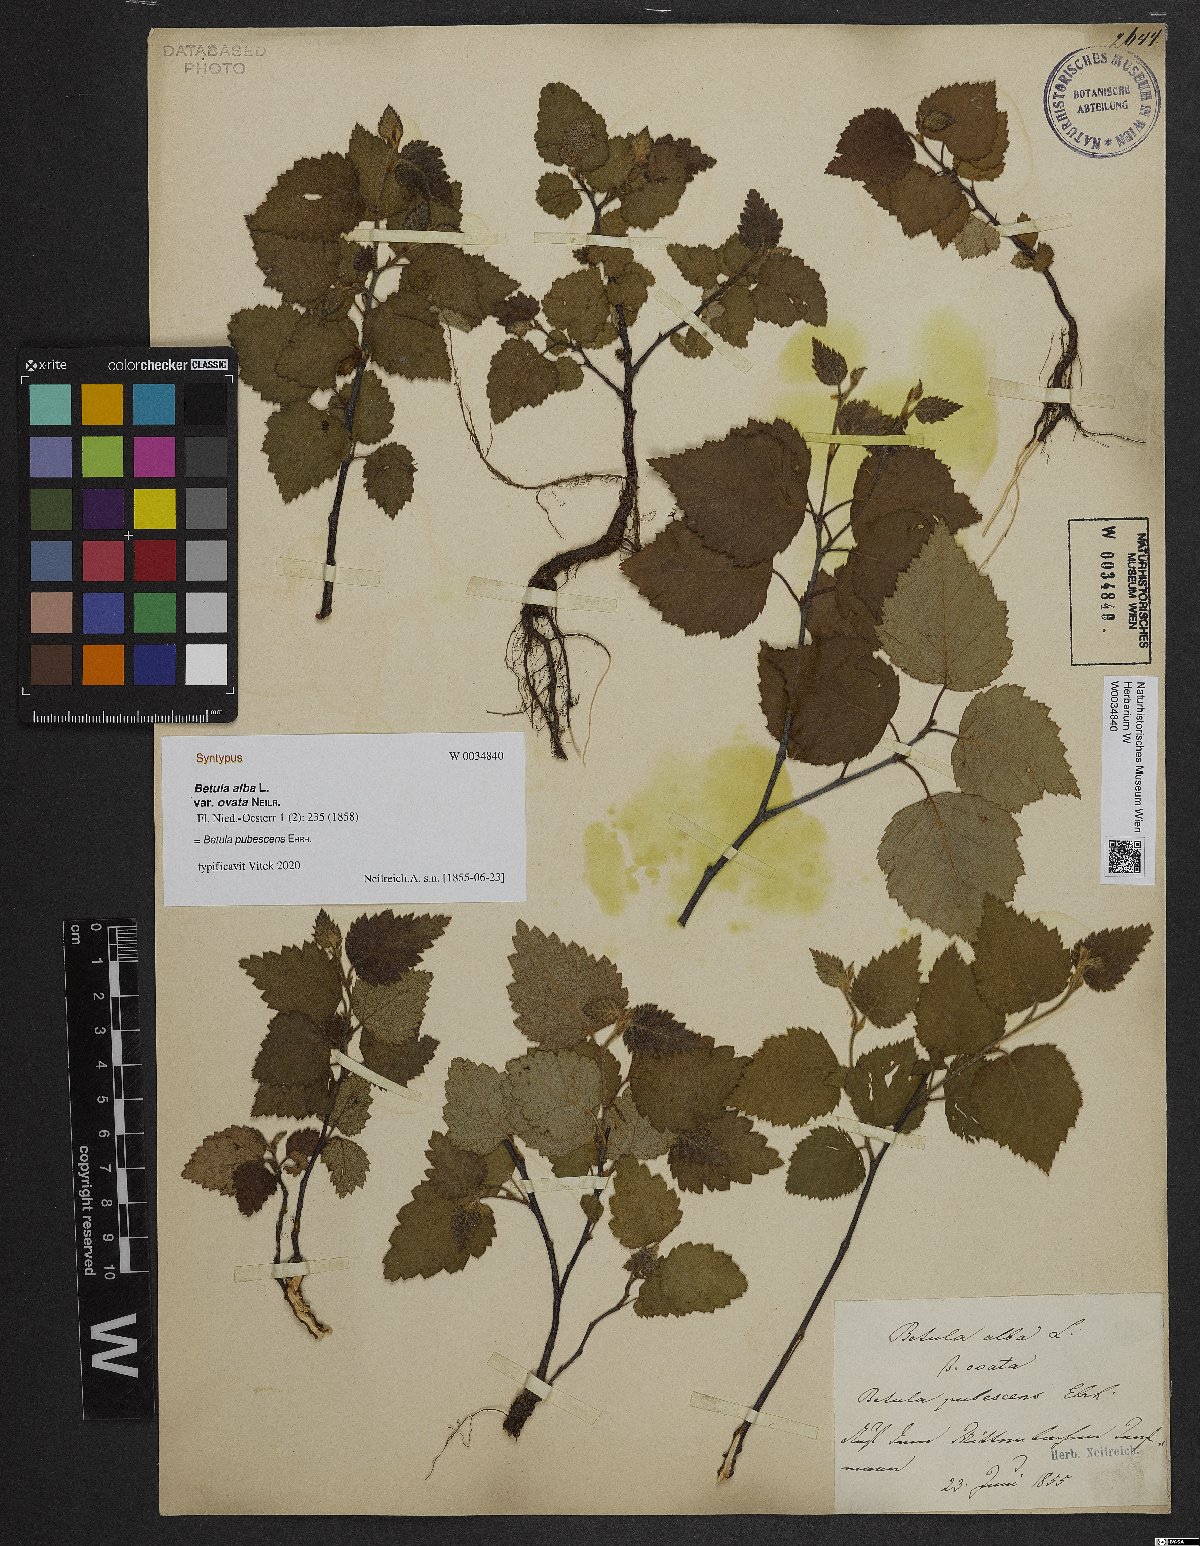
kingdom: Plantae
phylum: Tracheophyta
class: Magnoliopsida
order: Fagales
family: Betulaceae
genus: Betula
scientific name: Betula pubescens
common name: Downy birch
